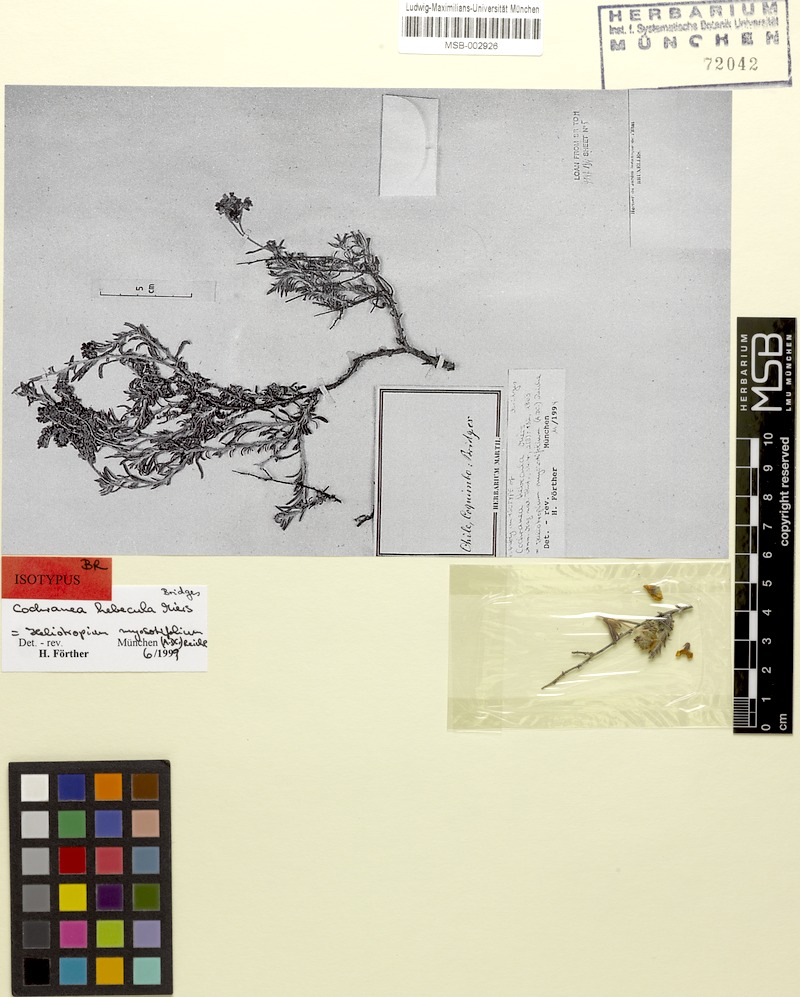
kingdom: Plantae
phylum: Tracheophyta
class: Magnoliopsida
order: Boraginales
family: Heliotropiaceae
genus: Heliotropium
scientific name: Heliotropium myosotifolium
